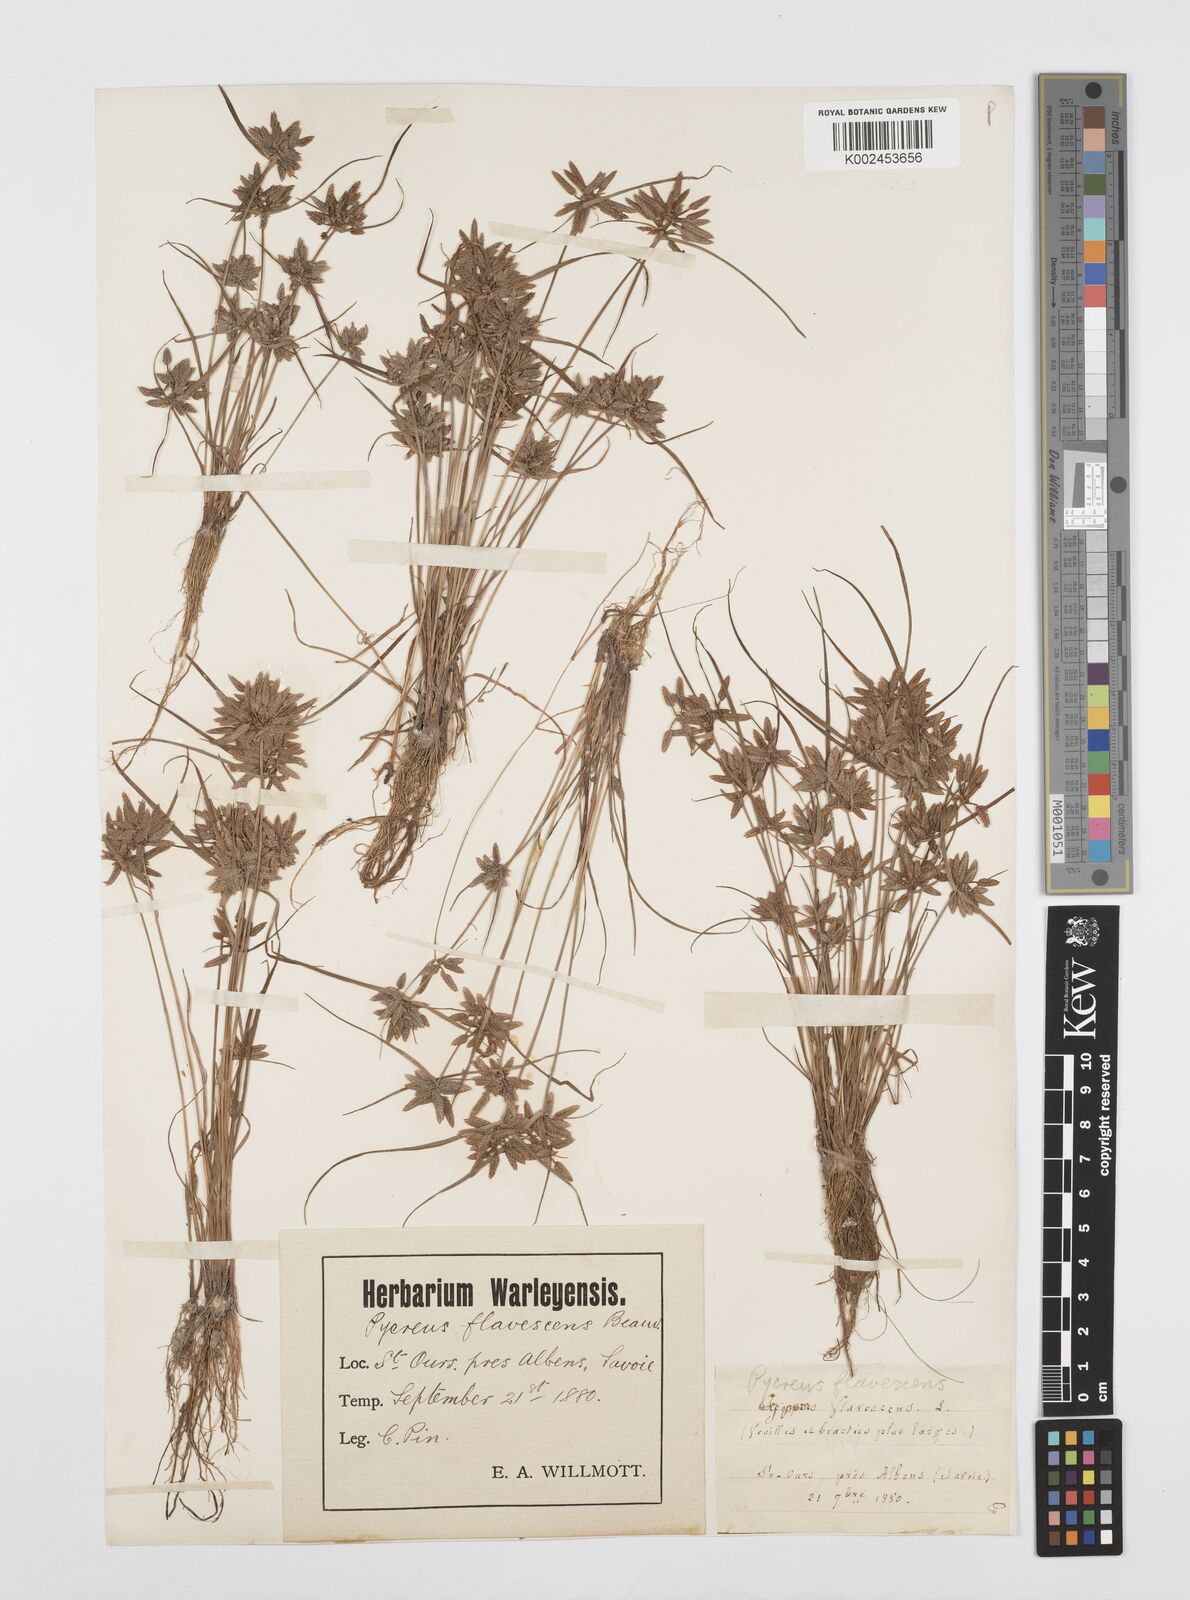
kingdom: Plantae
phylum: Tracheophyta
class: Liliopsida
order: Poales
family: Cyperaceae
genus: Cyperus
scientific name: Cyperus flavescens
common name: Yellow galingale
